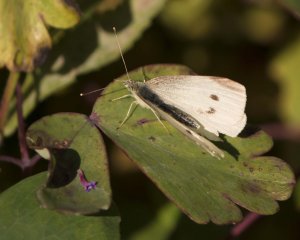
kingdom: Animalia
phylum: Arthropoda
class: Insecta
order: Lepidoptera
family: Pieridae
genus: Pieris
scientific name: Pieris rapae
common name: Cabbage White
